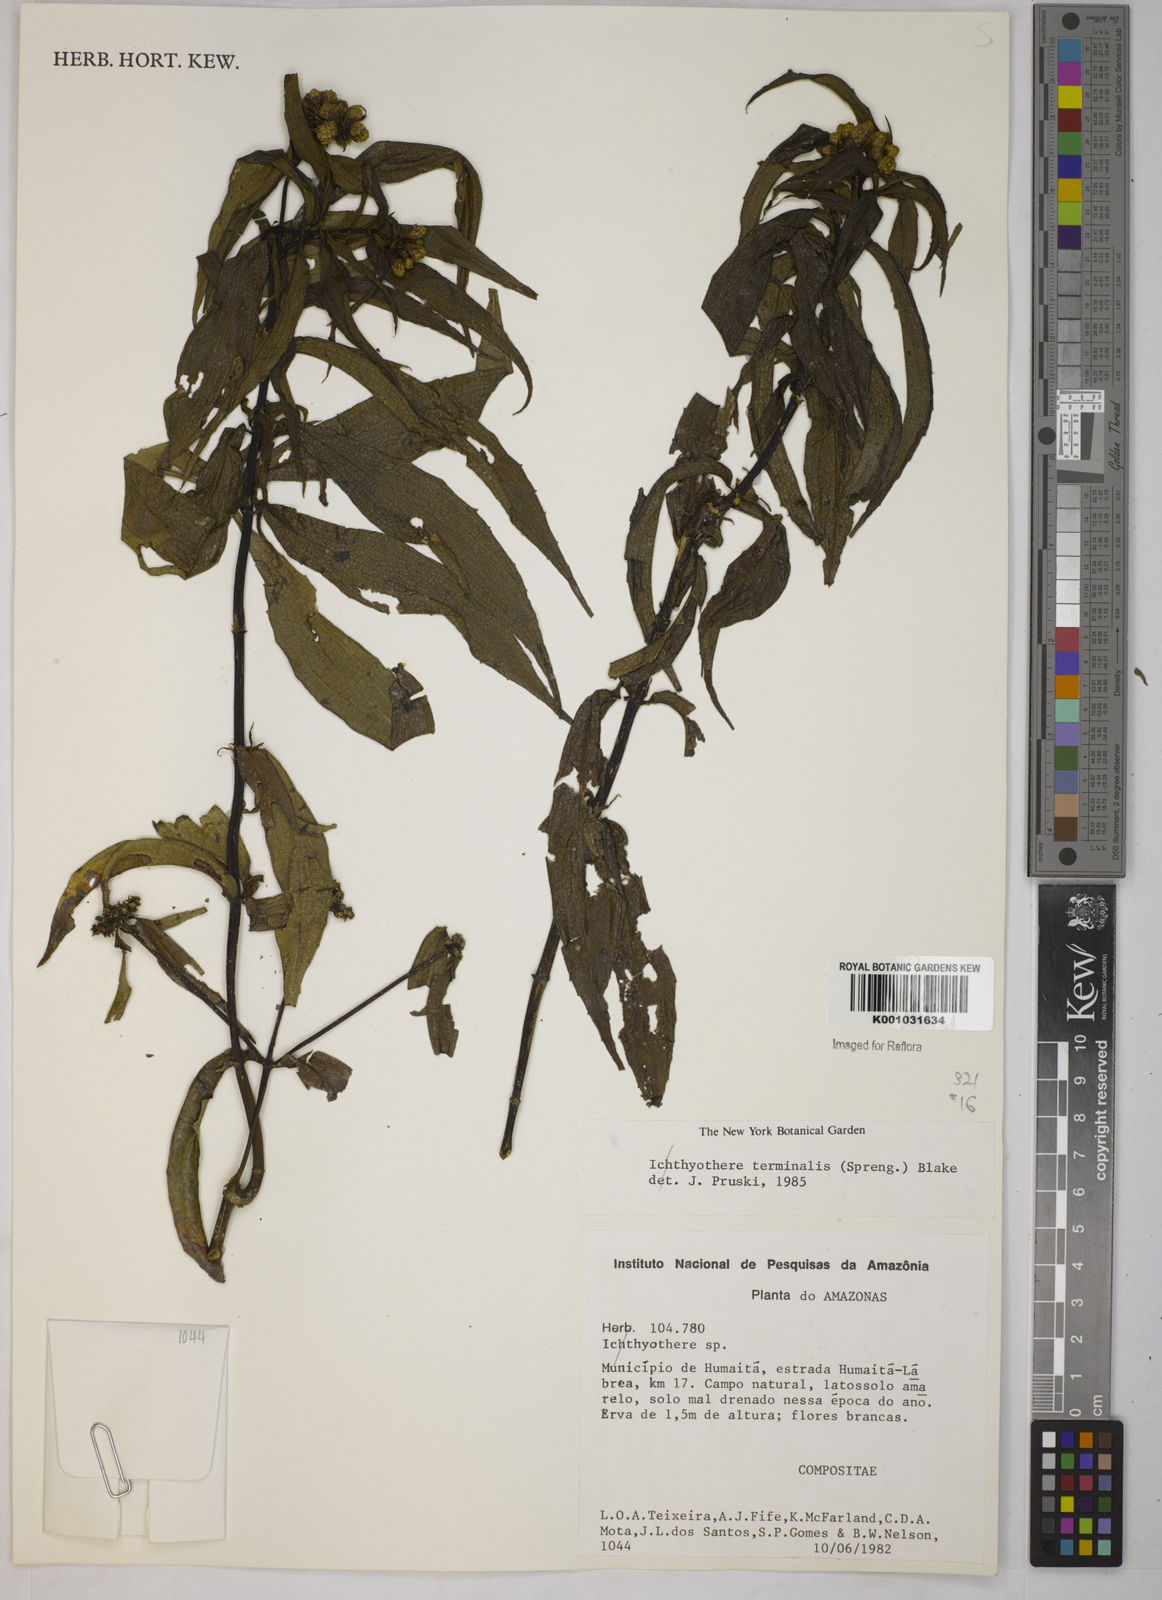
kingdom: Plantae
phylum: Tracheophyta
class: Magnoliopsida
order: Asterales
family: Asteraceae
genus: Ichthyothere
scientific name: Ichthyothere terminalis
